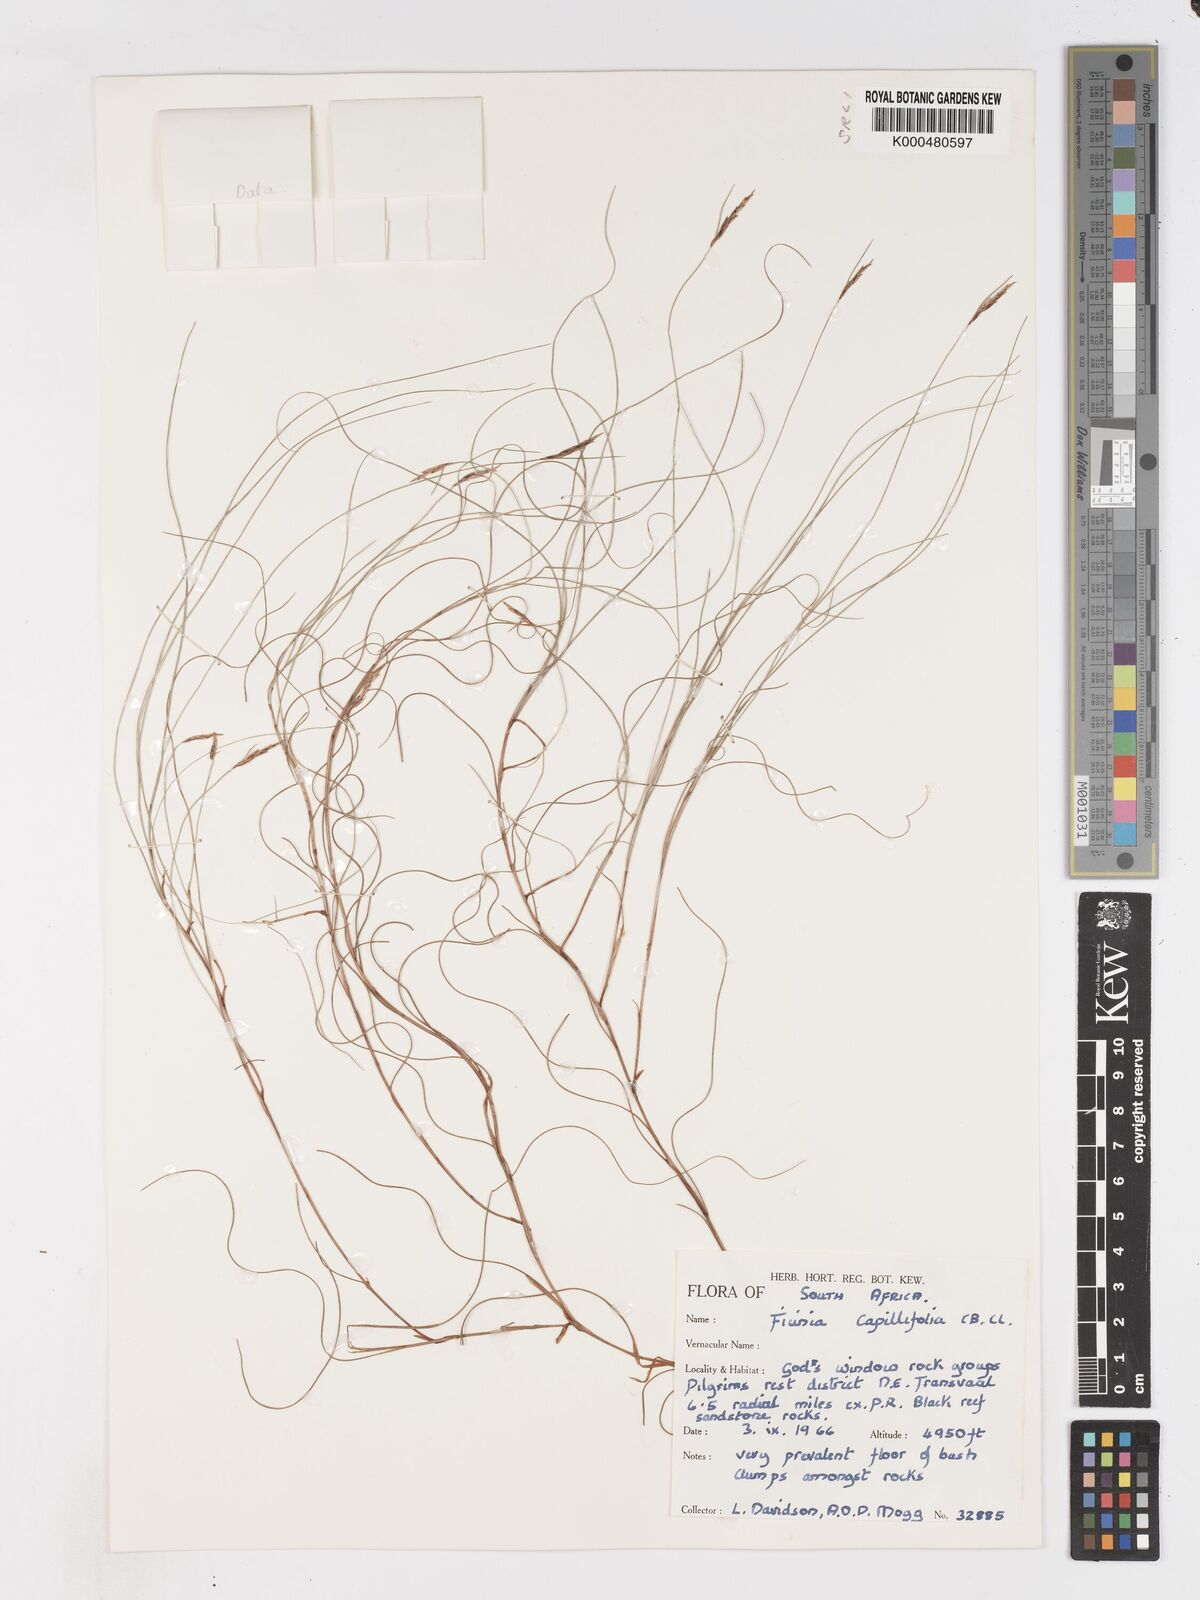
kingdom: Plantae
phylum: Tracheophyta
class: Liliopsida
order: Poales
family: Cyperaceae
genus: Ficinia
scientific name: Ficinia capillifolia
